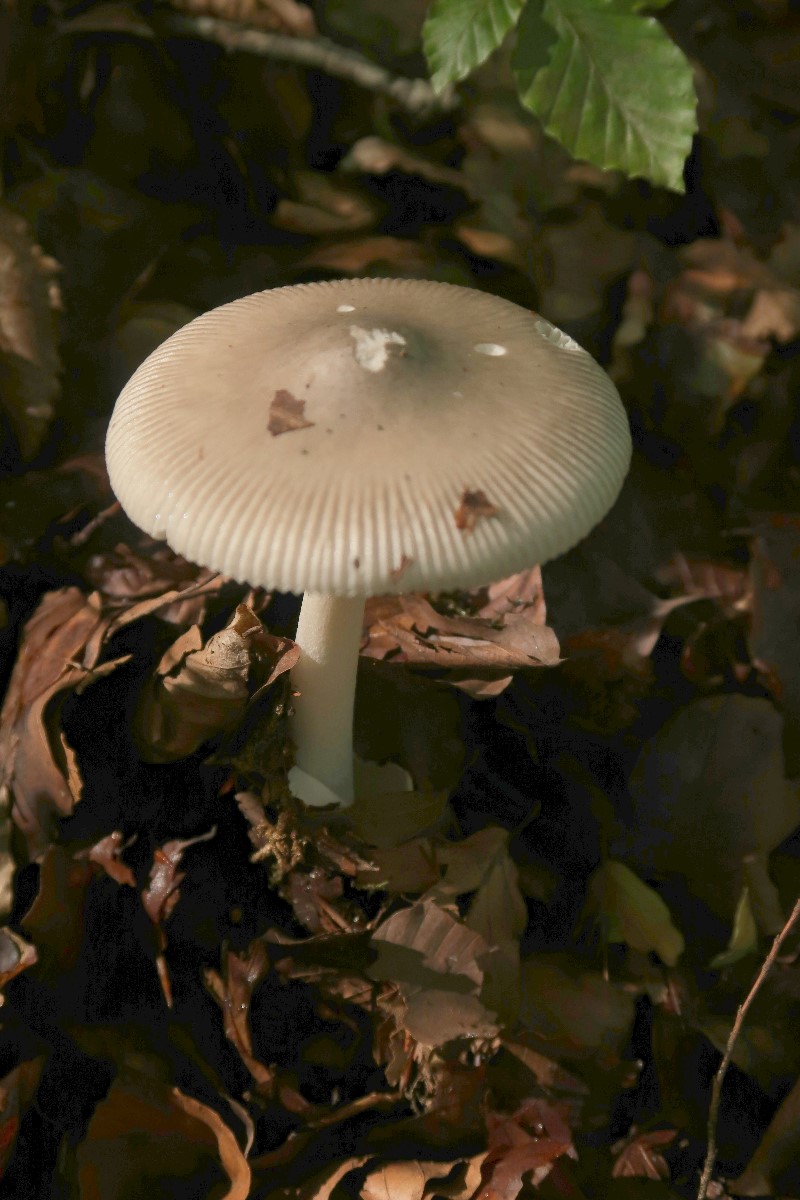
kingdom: Fungi
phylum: Basidiomycota
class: Agaricomycetes
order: Agaricales
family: Amanitaceae
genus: Amanita
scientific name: Amanita
